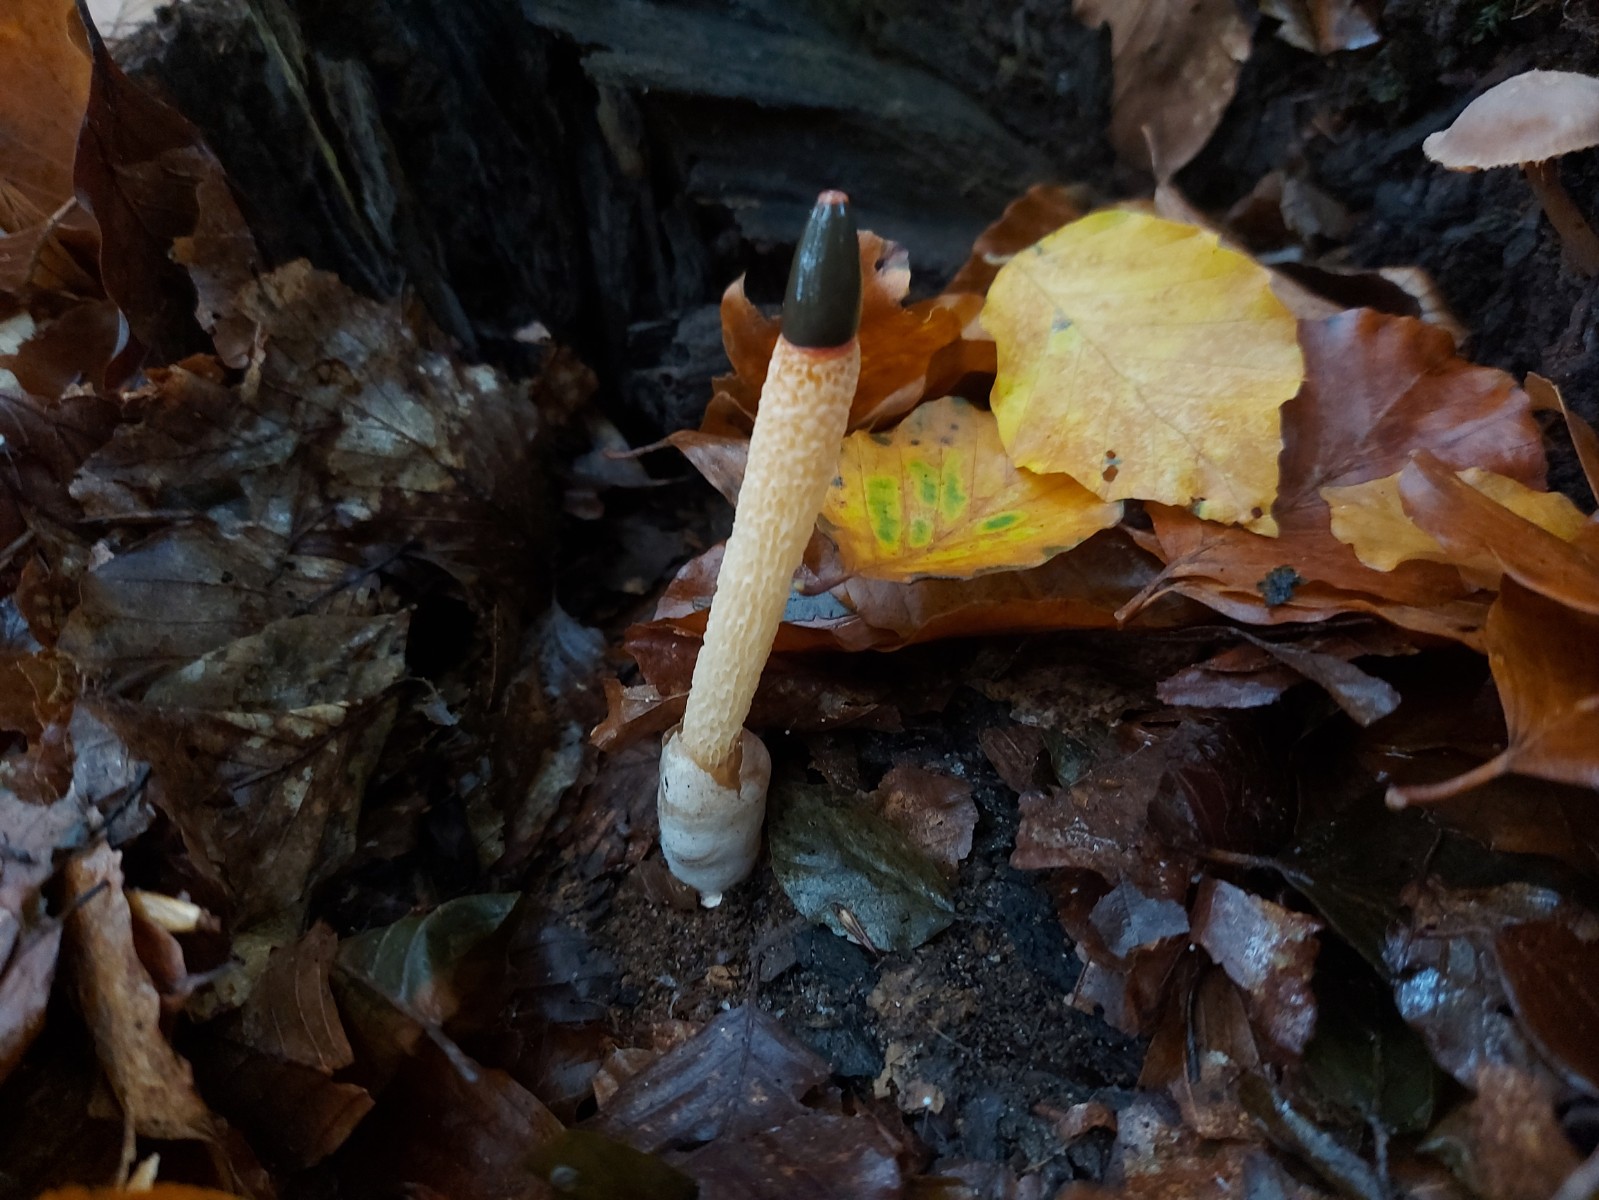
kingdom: Fungi
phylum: Basidiomycota
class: Agaricomycetes
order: Phallales
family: Phallaceae
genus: Mutinus
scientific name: Mutinus caninus
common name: hunde-stinksvamp
